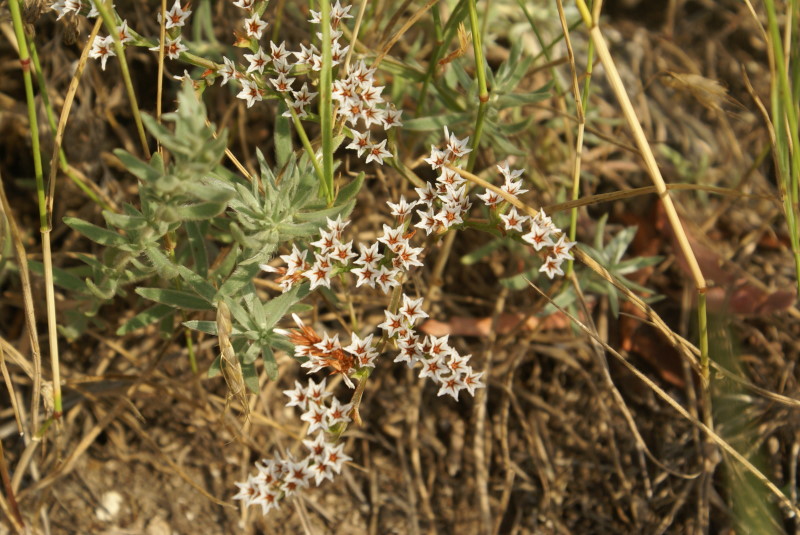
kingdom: Plantae
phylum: Tracheophyta
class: Magnoliopsida
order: Caryophyllales
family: Plumbaginaceae
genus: Goniolimon
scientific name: Goniolimon tauricum
